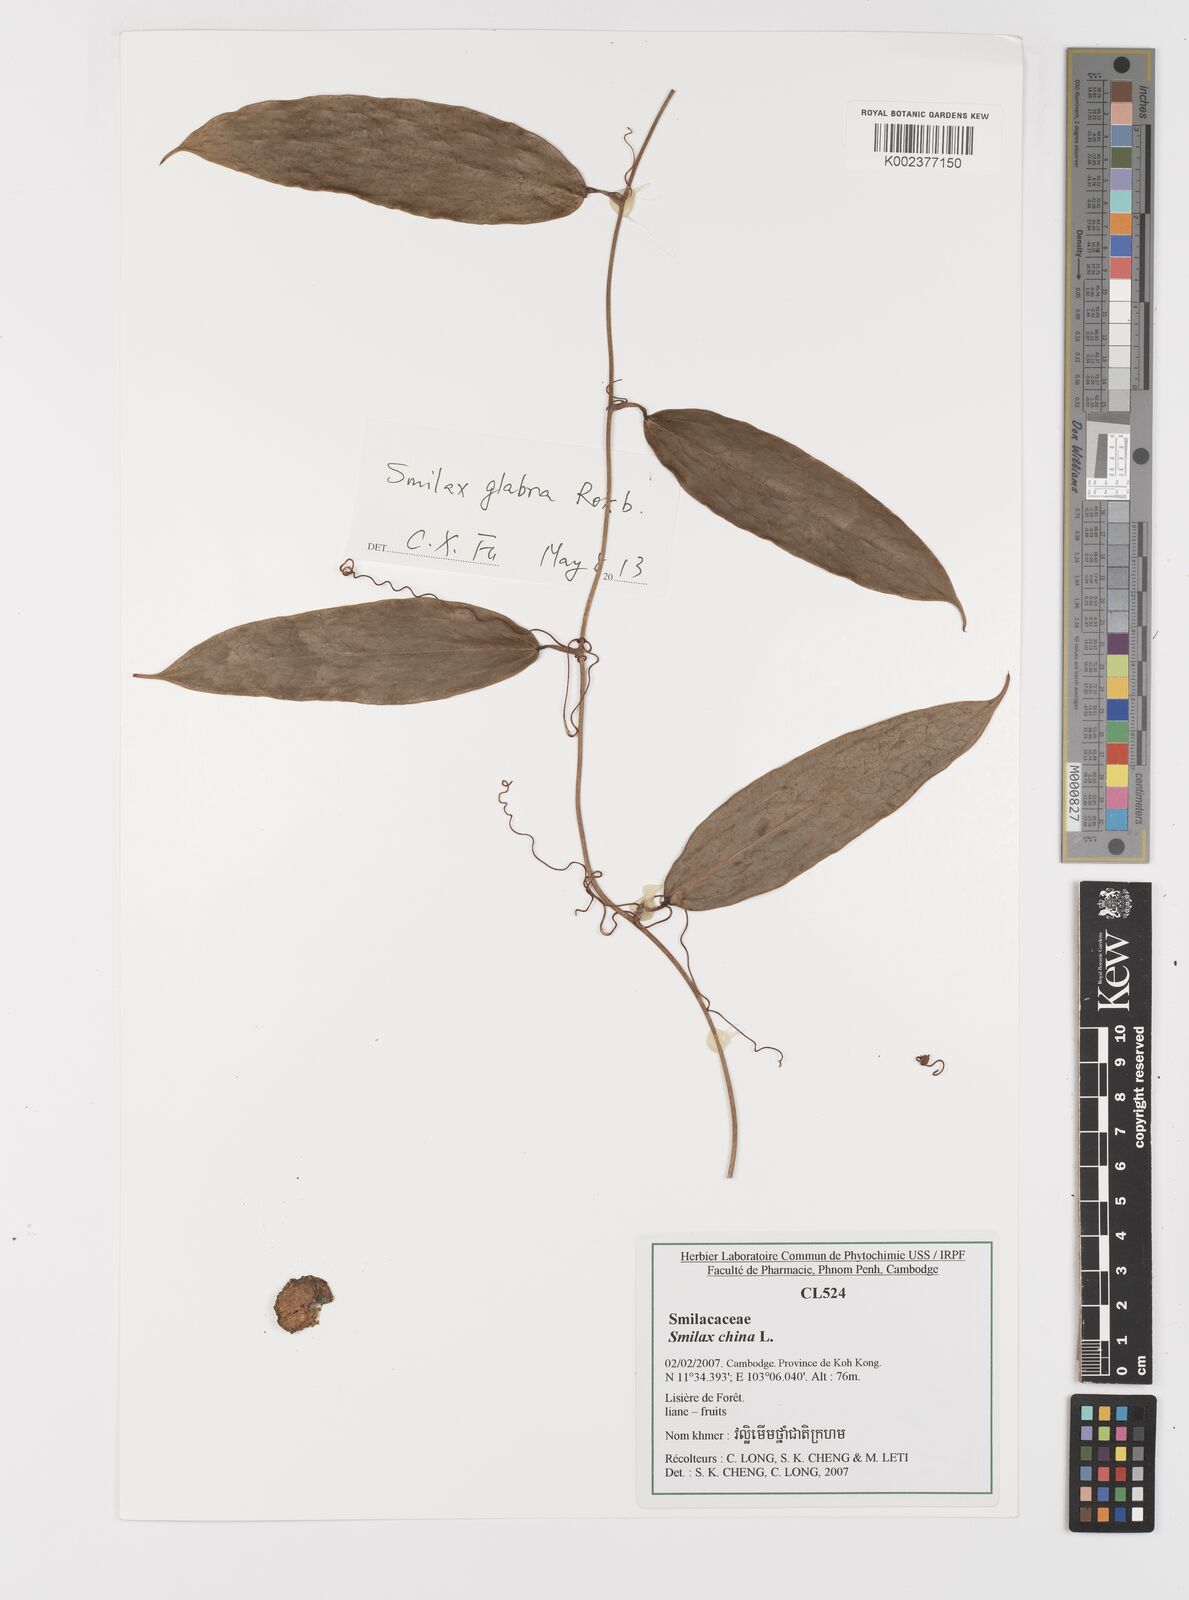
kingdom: Plantae
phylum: Tracheophyta
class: Liliopsida
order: Liliales
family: Smilacaceae
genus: Smilax
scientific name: Smilax china
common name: Chinaroot
